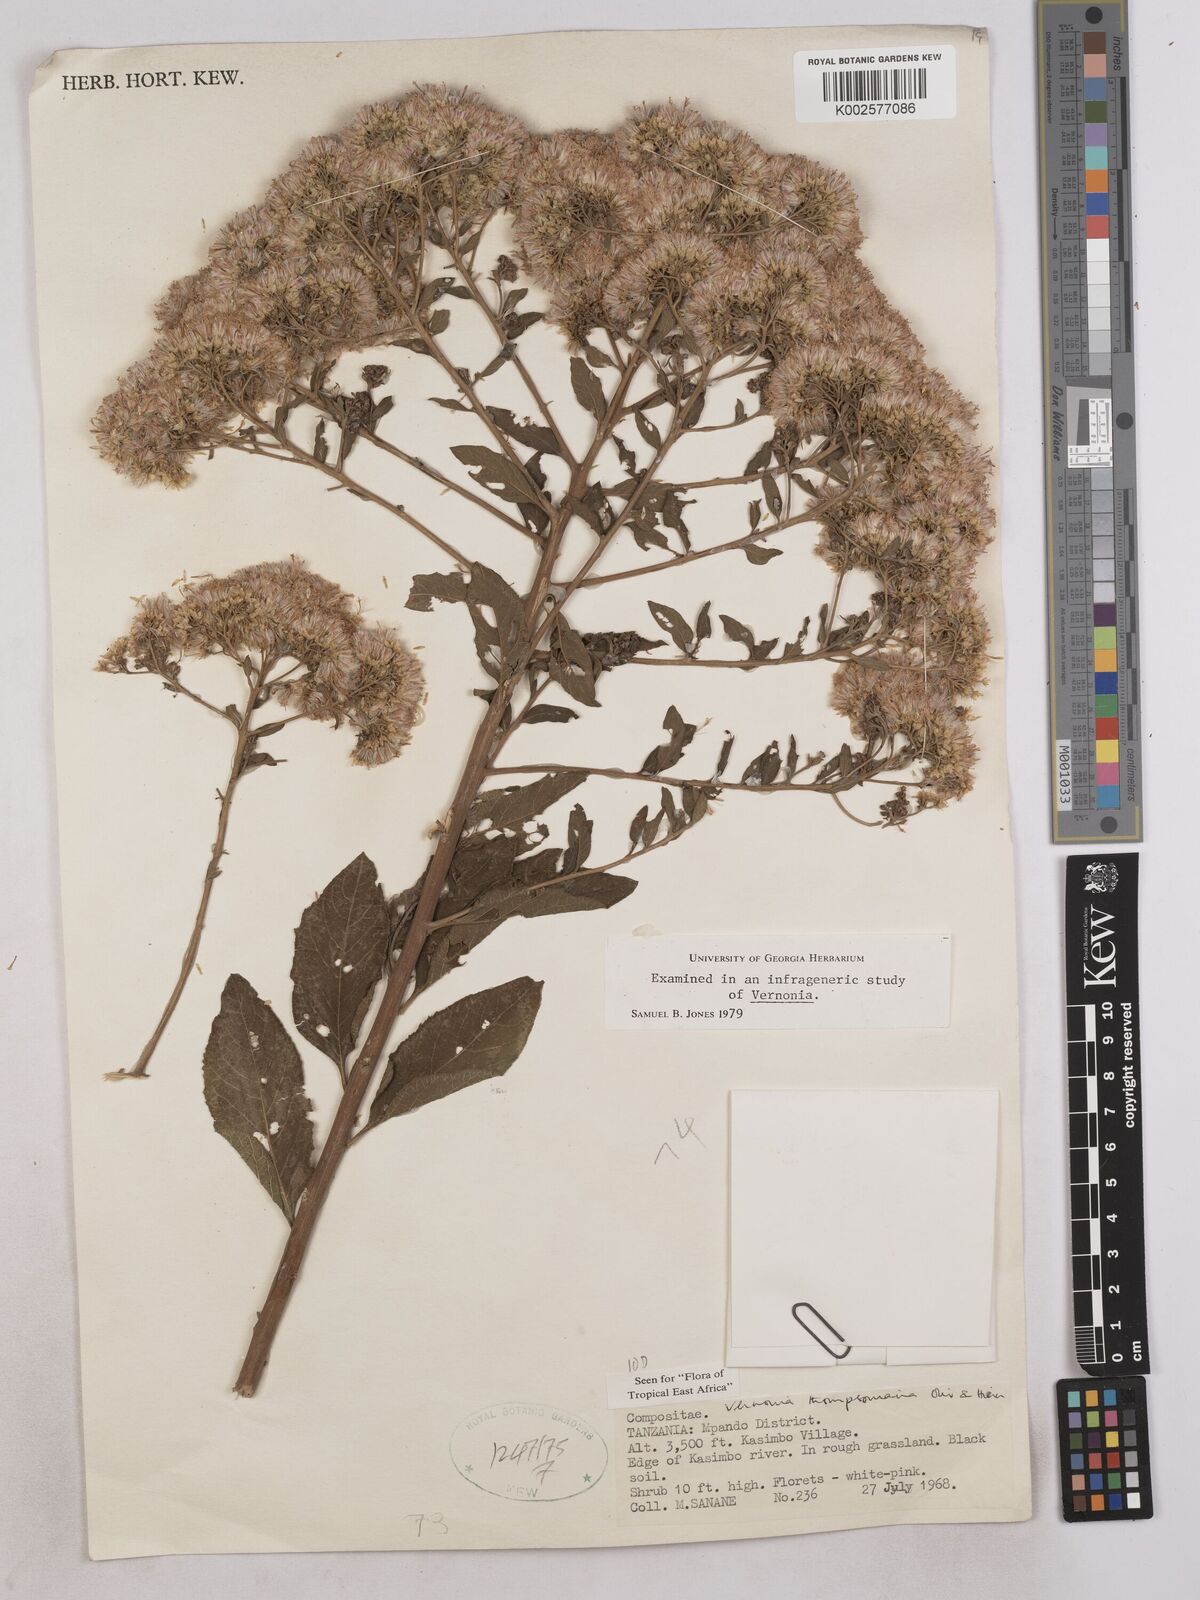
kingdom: Plantae
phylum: Tracheophyta
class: Magnoliopsida
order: Asterales
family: Asteraceae
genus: Gymnanthemum
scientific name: Gymnanthemum thomsonianum
